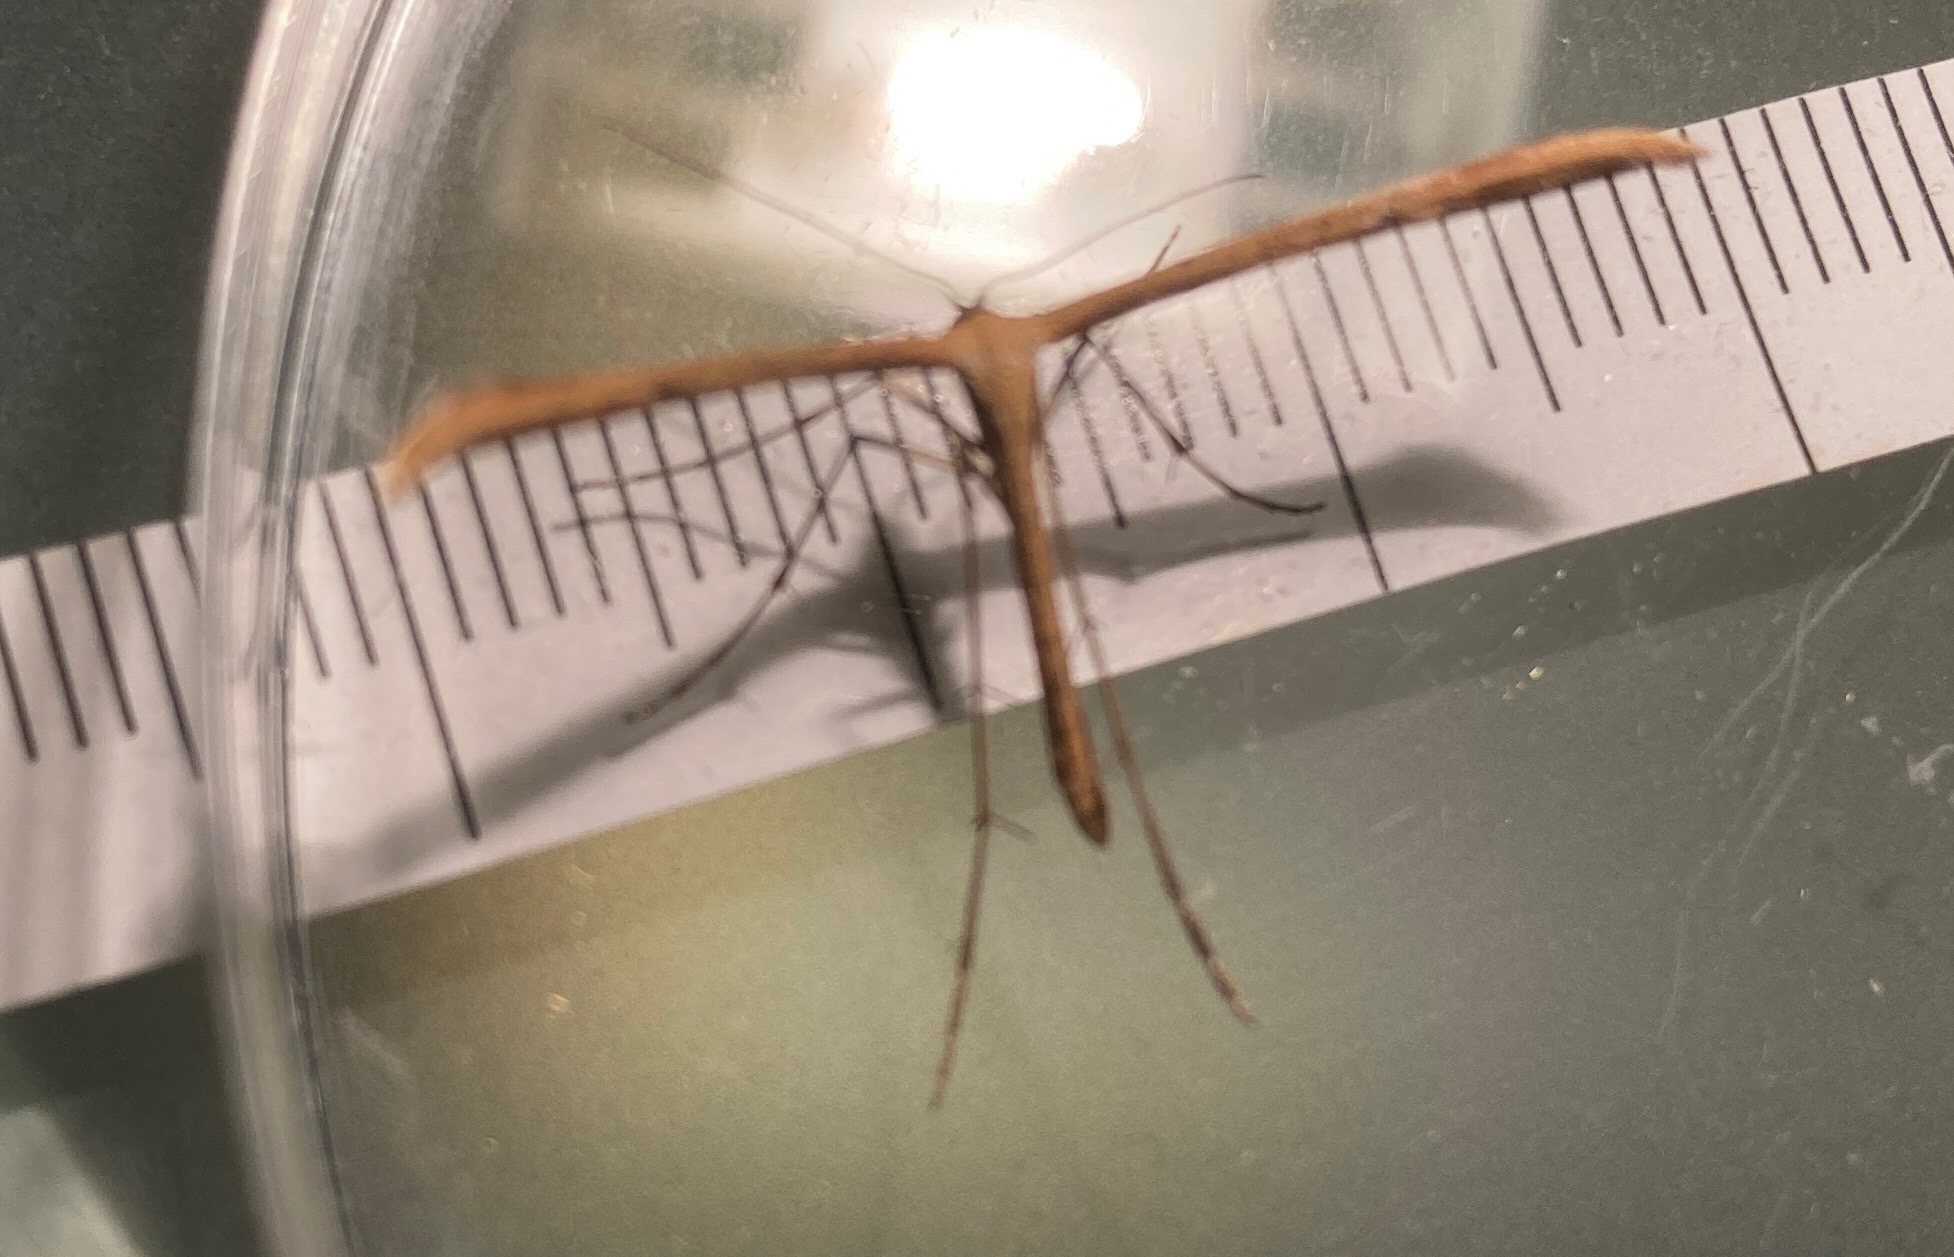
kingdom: Animalia
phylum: Arthropoda
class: Insecta
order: Lepidoptera
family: Pterophoridae
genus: Emmelina
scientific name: Emmelina monodactyla
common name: Snerlefjermøl
